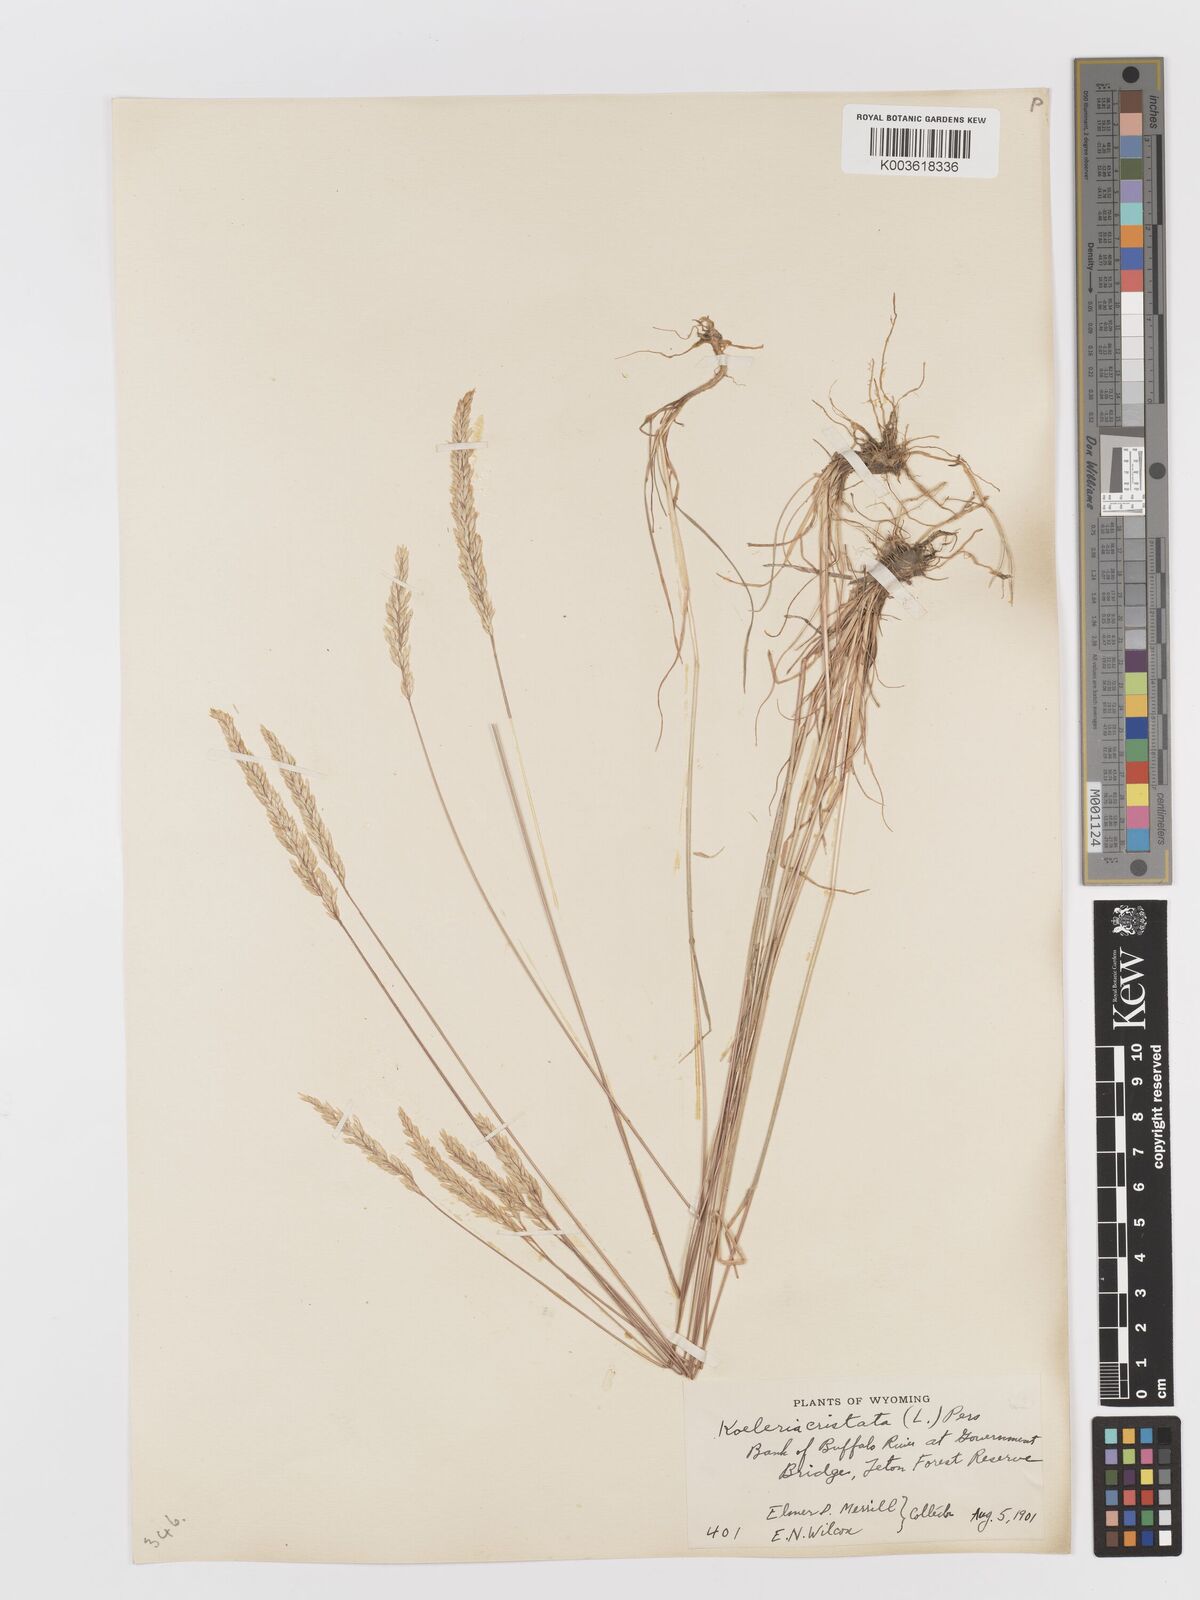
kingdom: Plantae
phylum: Tracheophyta
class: Liliopsida
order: Poales
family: Poaceae
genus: Koeleria
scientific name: Koeleria
